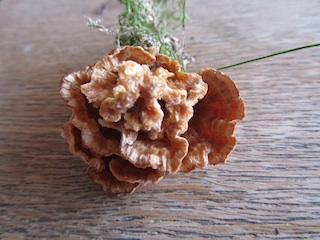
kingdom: Fungi
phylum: Basidiomycota
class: Agaricomycetes
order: Polyporales
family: Polyporaceae
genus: Trametes
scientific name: Trametes versicolor
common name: broget læderporesvamp
